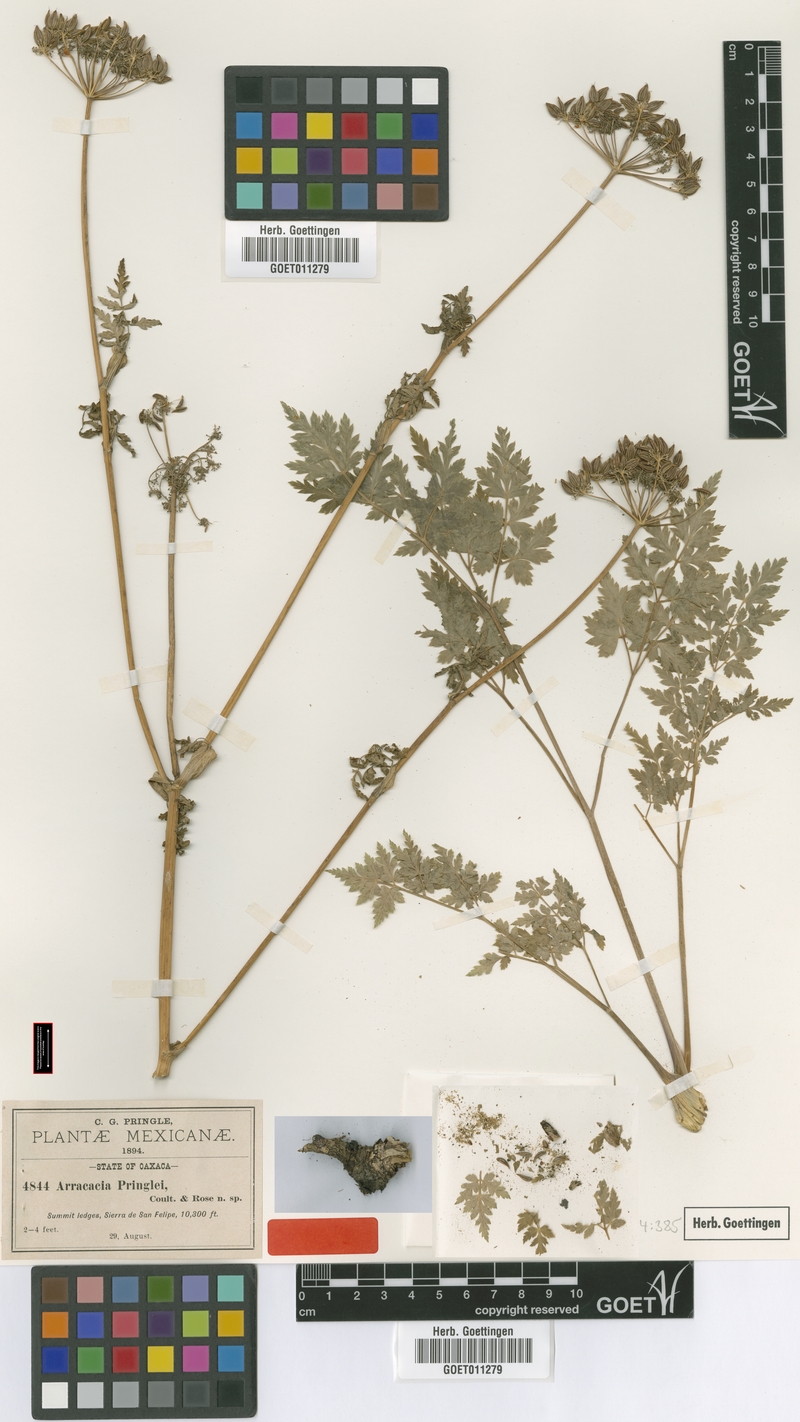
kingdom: Plantae
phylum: Tracheophyta
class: Magnoliopsida
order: Apiales
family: Apiaceae
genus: Arracacia
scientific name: Arracacia pringlei
